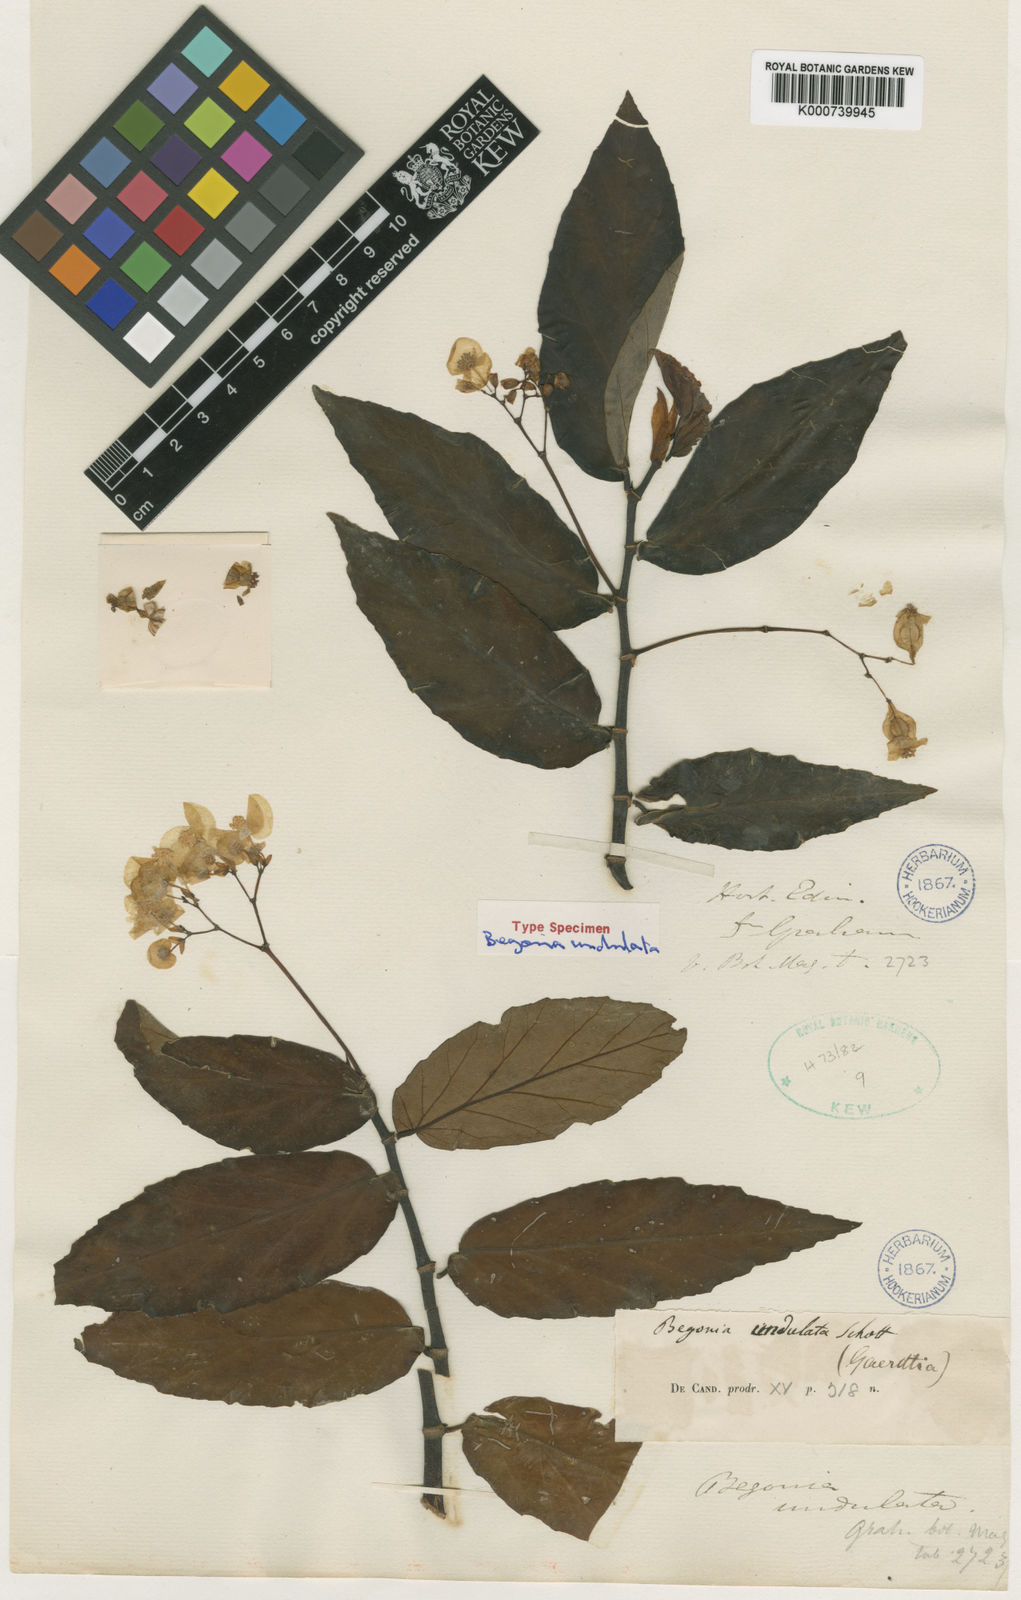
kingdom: Plantae
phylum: Tracheophyta
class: Magnoliopsida
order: Cucurbitales
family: Begoniaceae
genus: Begonia
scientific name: Begonia undulata
